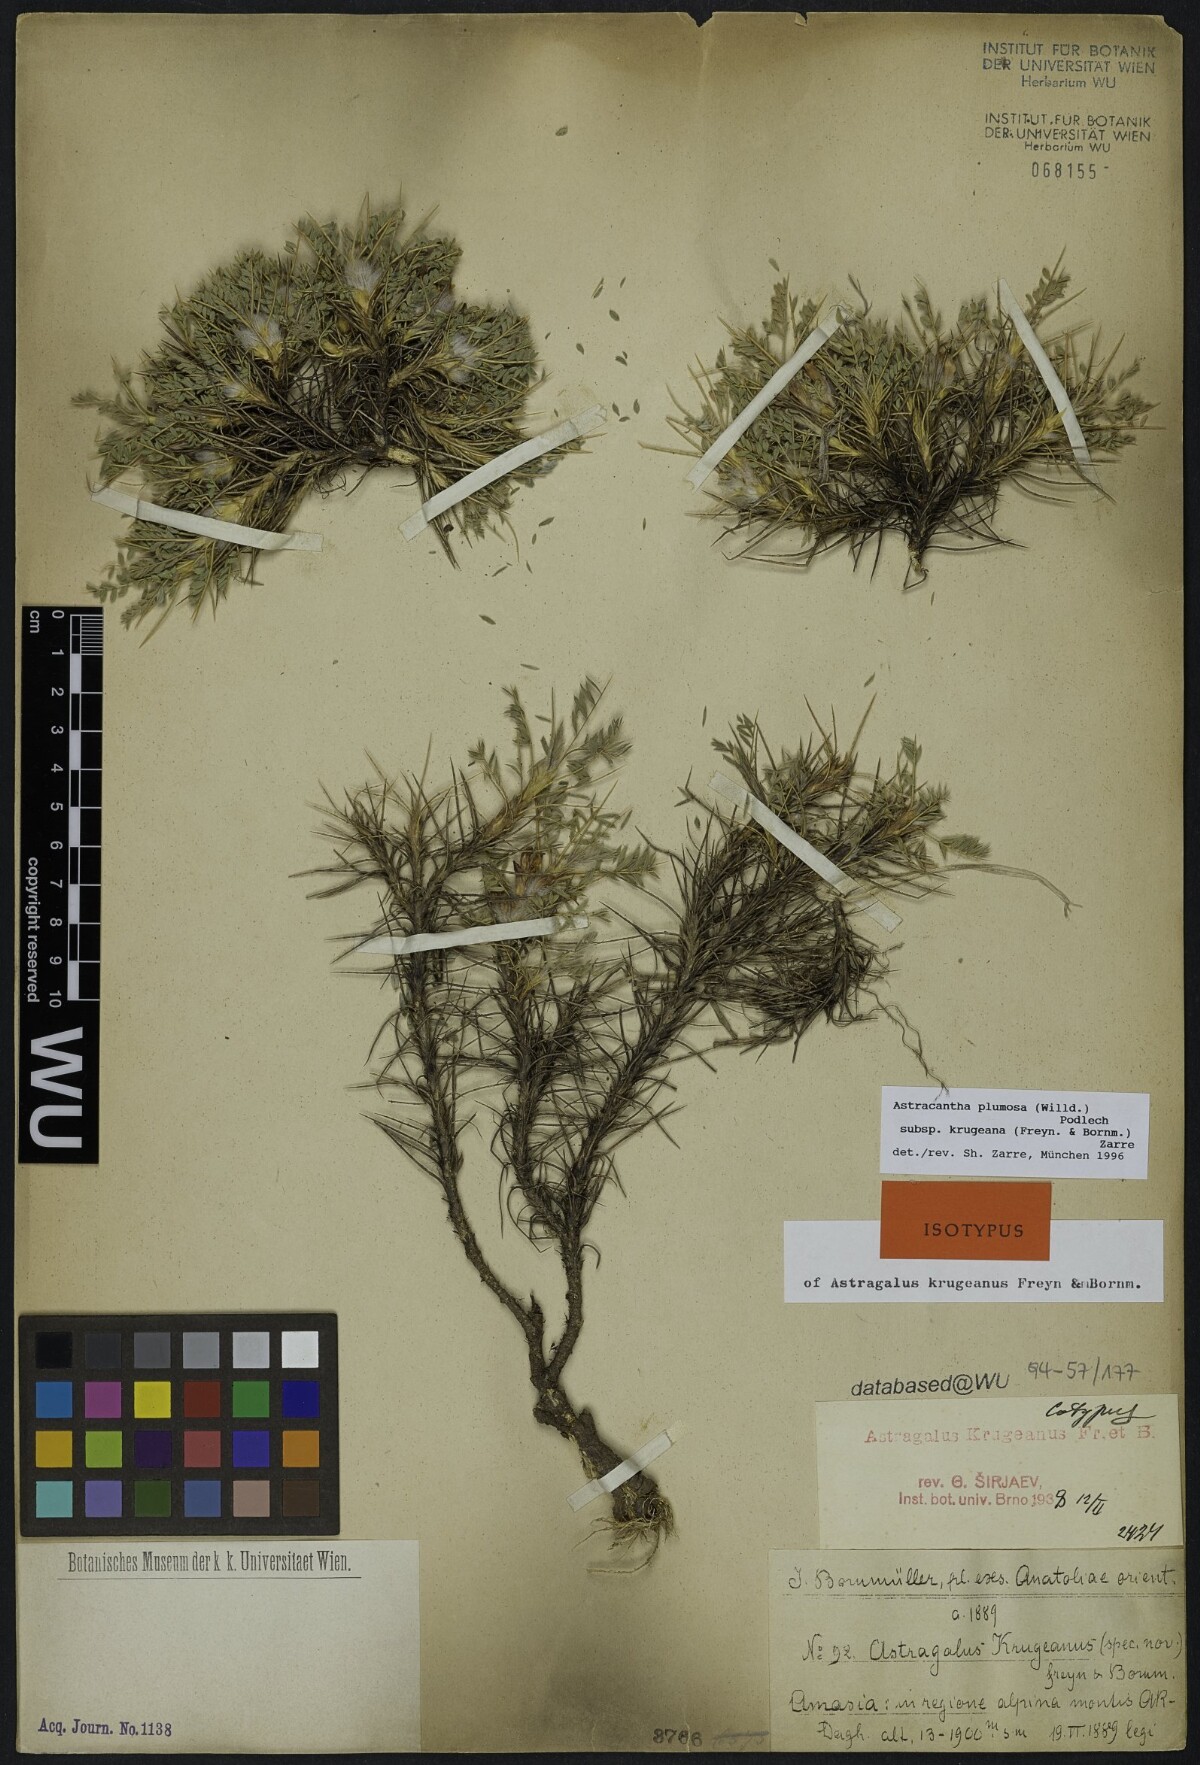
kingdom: Plantae
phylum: Tracheophyta
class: Magnoliopsida
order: Fabales
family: Fabaceae
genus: Astragalus
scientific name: Astragalus plumosus
